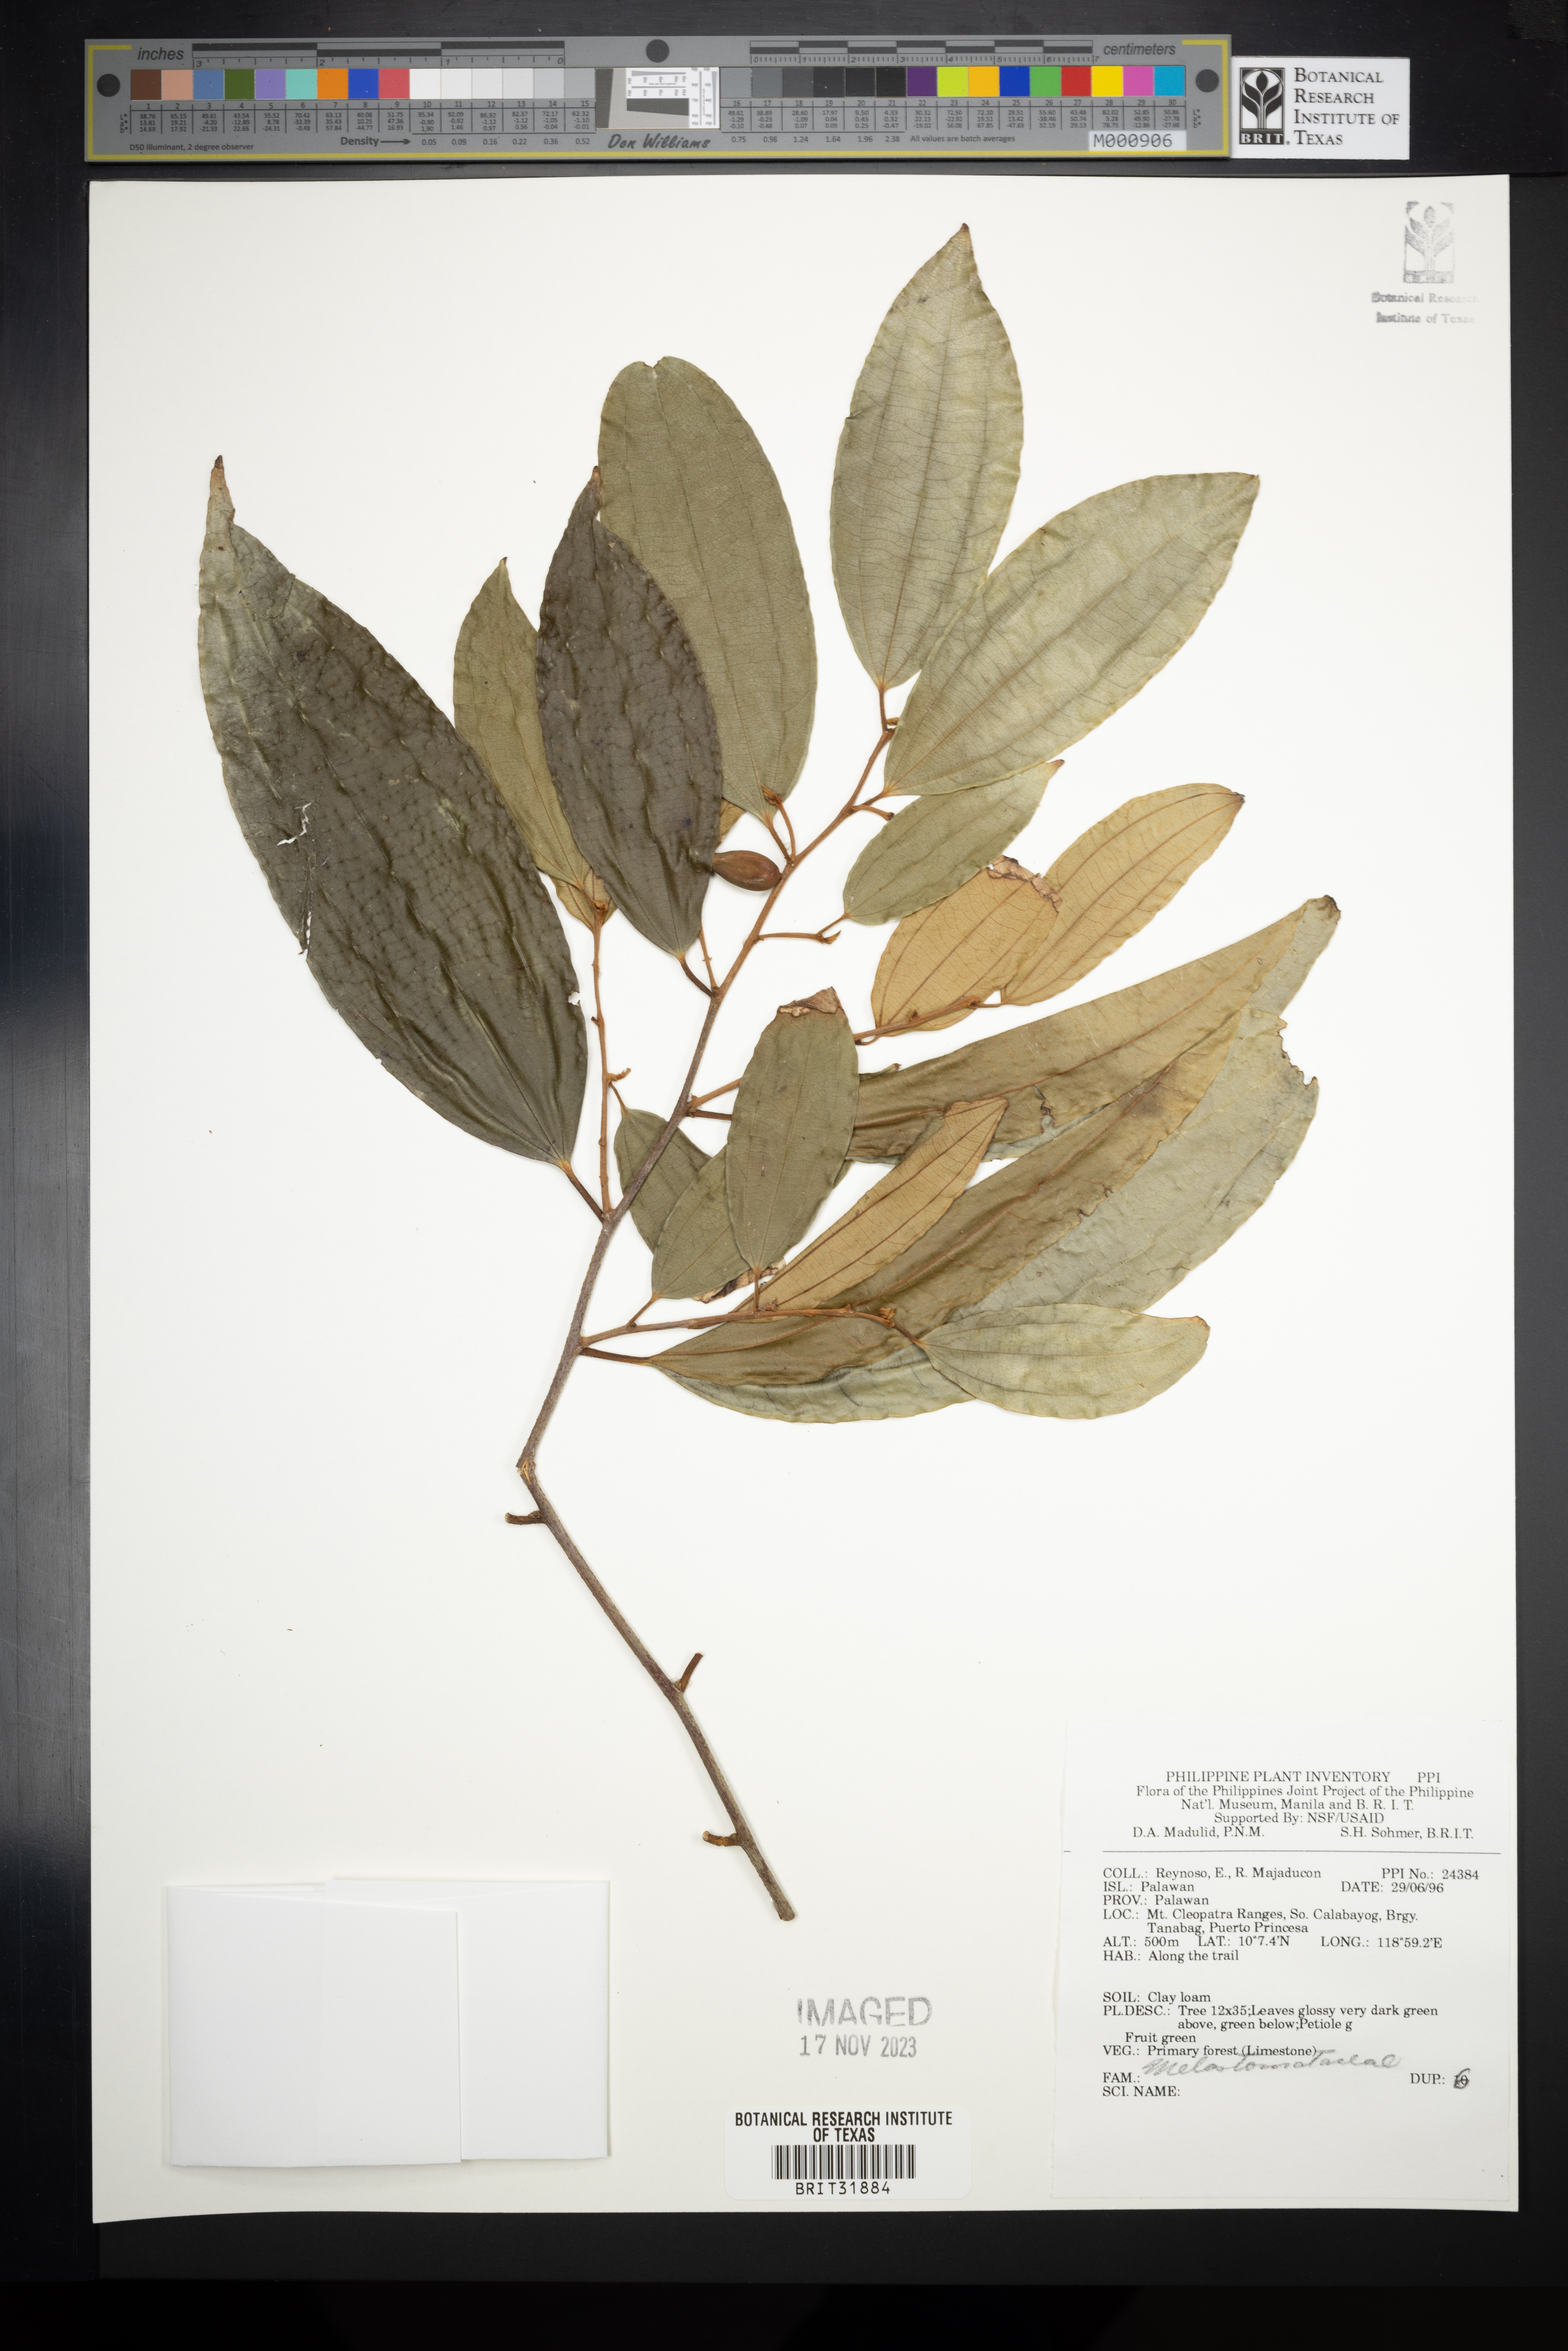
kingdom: Plantae
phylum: Tracheophyta
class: Magnoliopsida
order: Myrtales
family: Melastomataceae
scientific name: Melastomataceae
